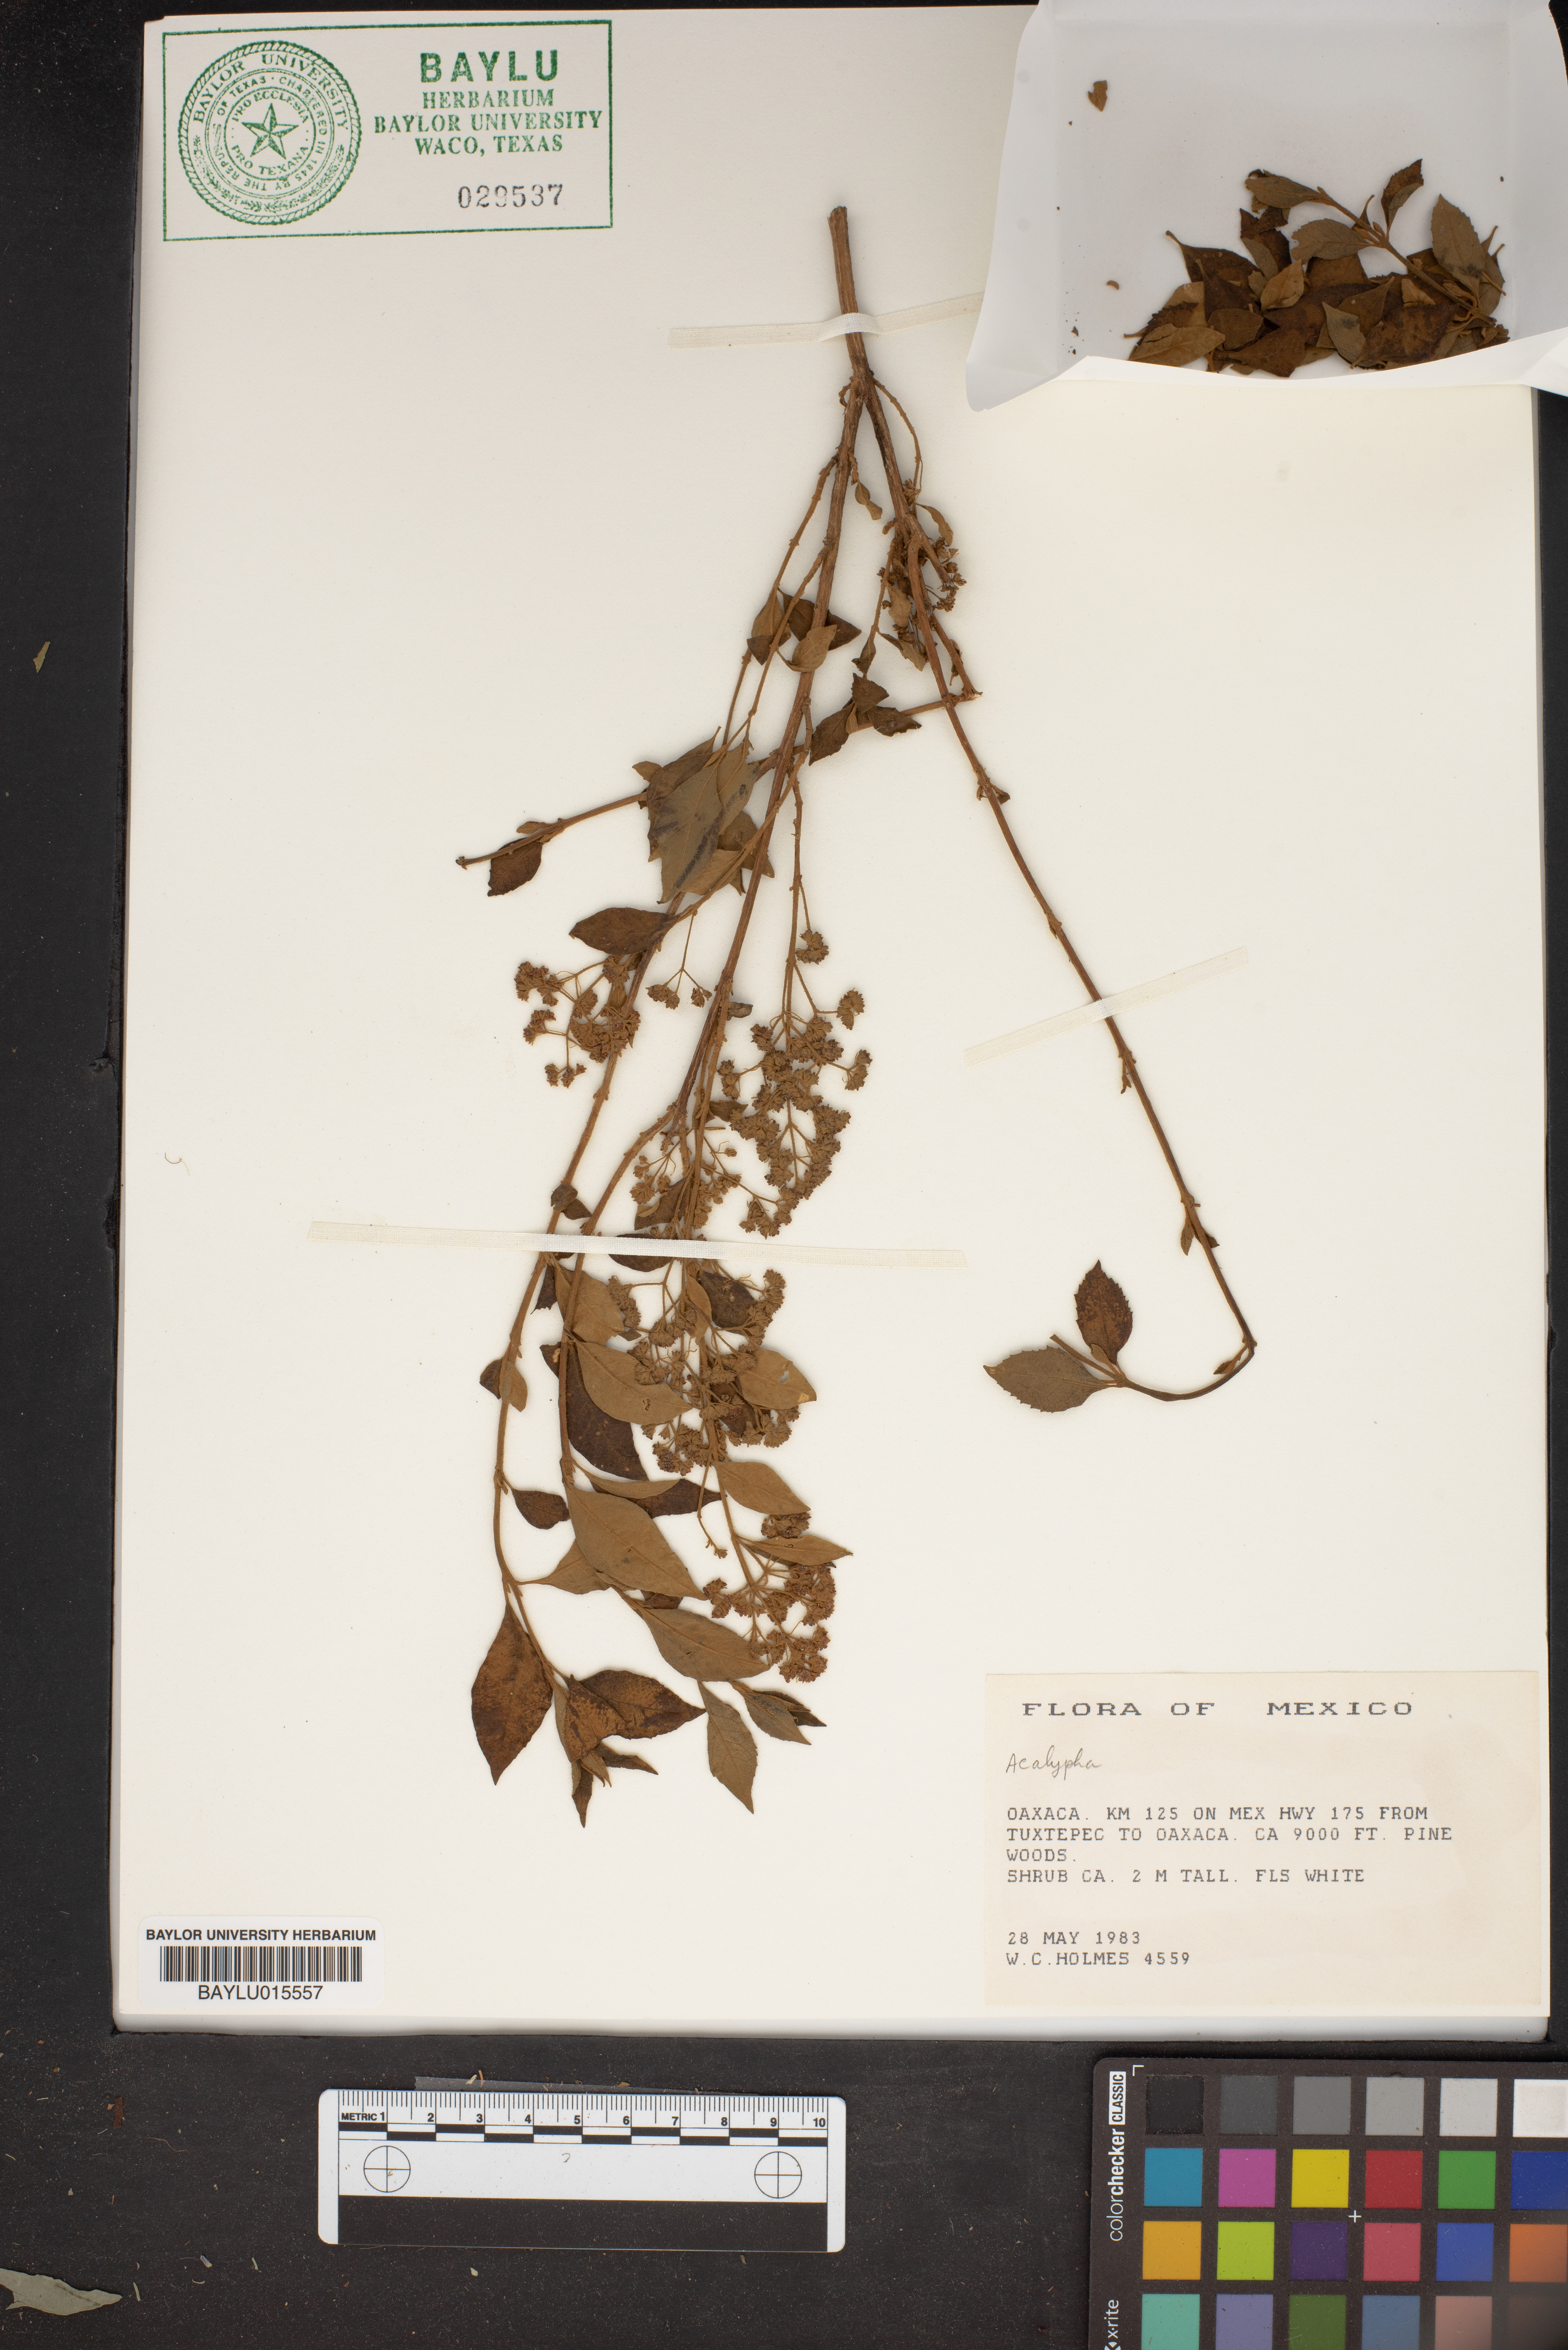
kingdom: Plantae
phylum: Tracheophyta
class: Magnoliopsida
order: Malpighiales
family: Euphorbiaceae
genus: Acalypha
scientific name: Acalypha
